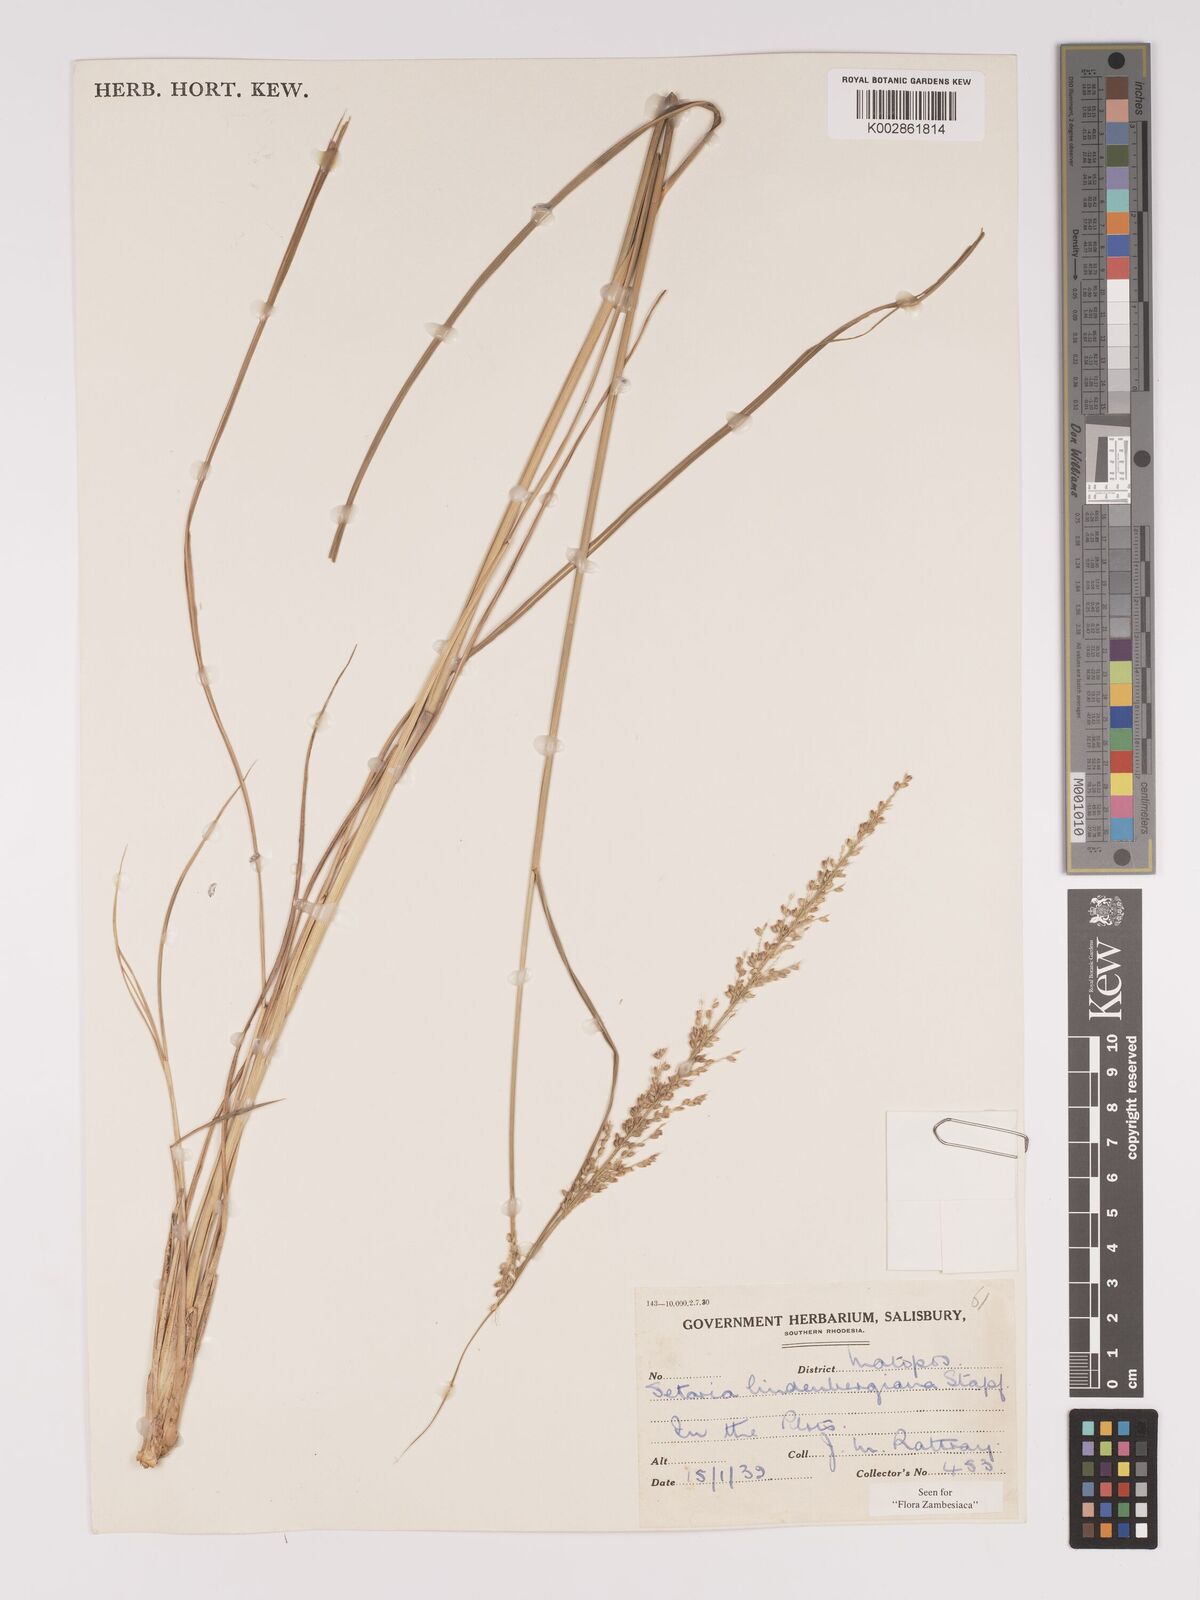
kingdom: Plantae
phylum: Tracheophyta
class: Liliopsida
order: Poales
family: Poaceae
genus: Setaria
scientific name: Setaria lindenbergiana
